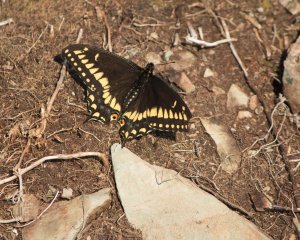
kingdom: Animalia
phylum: Arthropoda
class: Insecta
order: Lepidoptera
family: Papilionidae
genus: Papilio
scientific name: Papilio brevicauda
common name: Short-tailed Swallowtail
